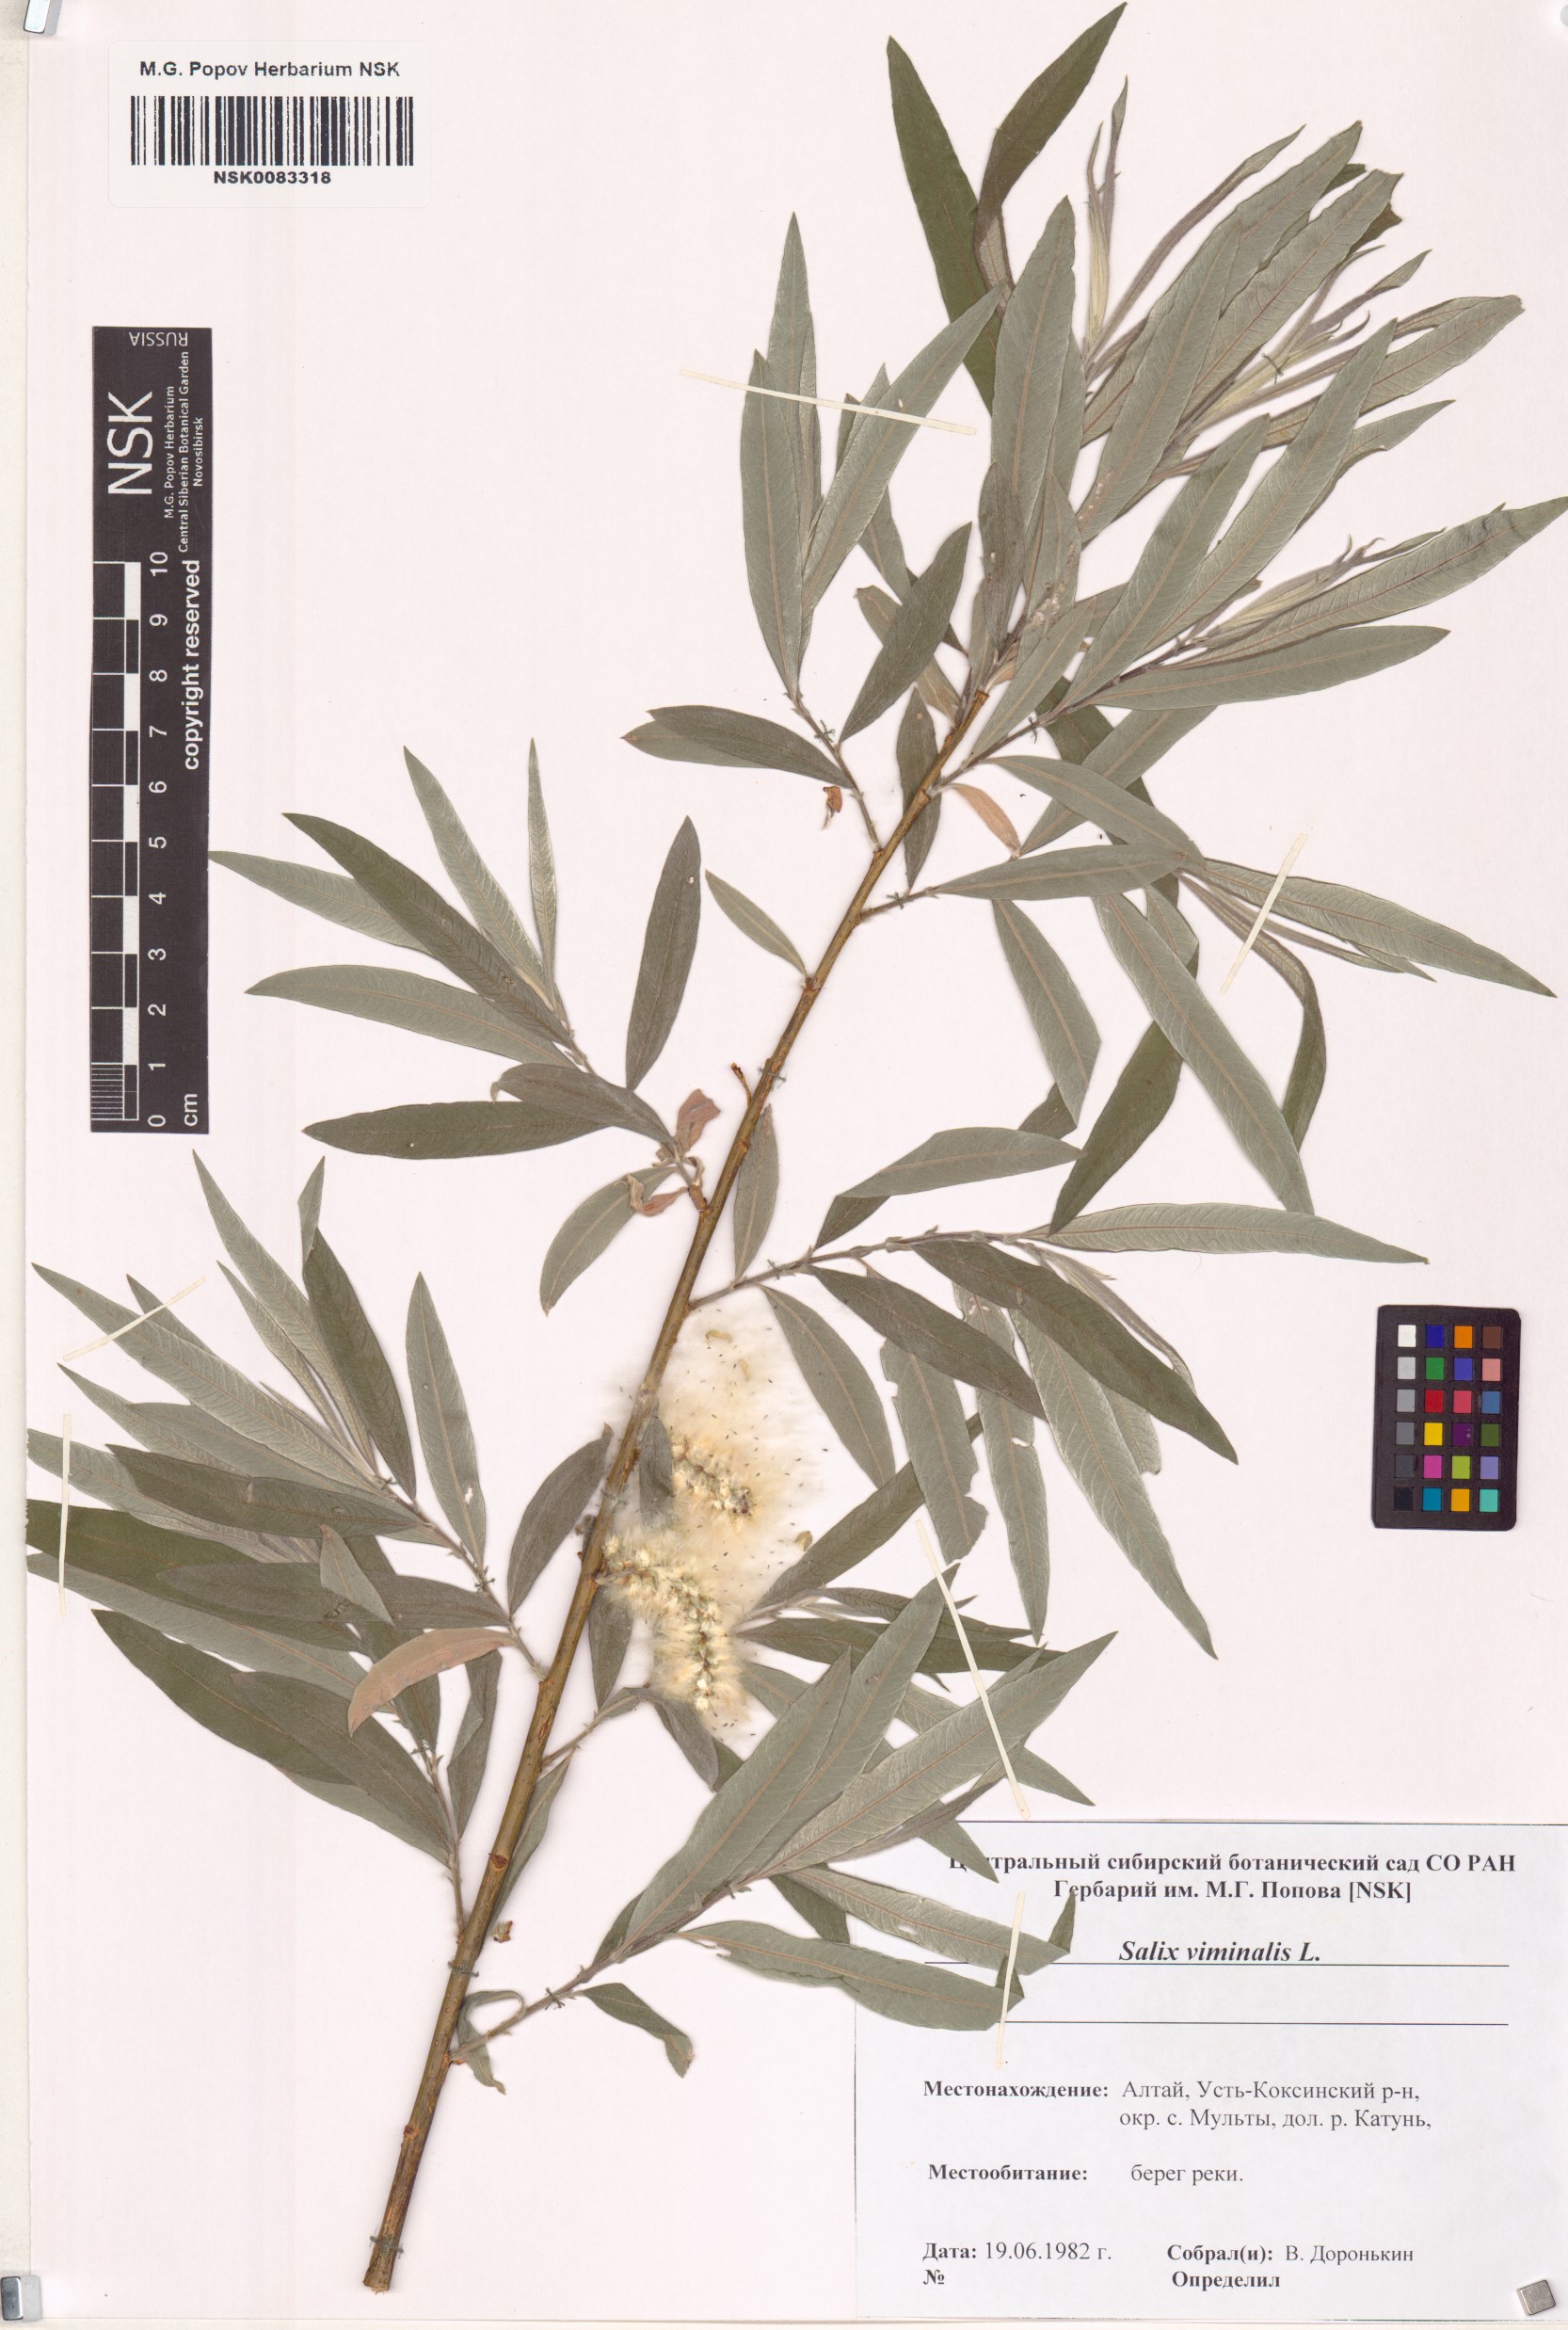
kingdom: Plantae
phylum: Tracheophyta
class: Magnoliopsida
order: Malpighiales
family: Salicaceae
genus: Salix
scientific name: Salix viminalis
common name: Osier
